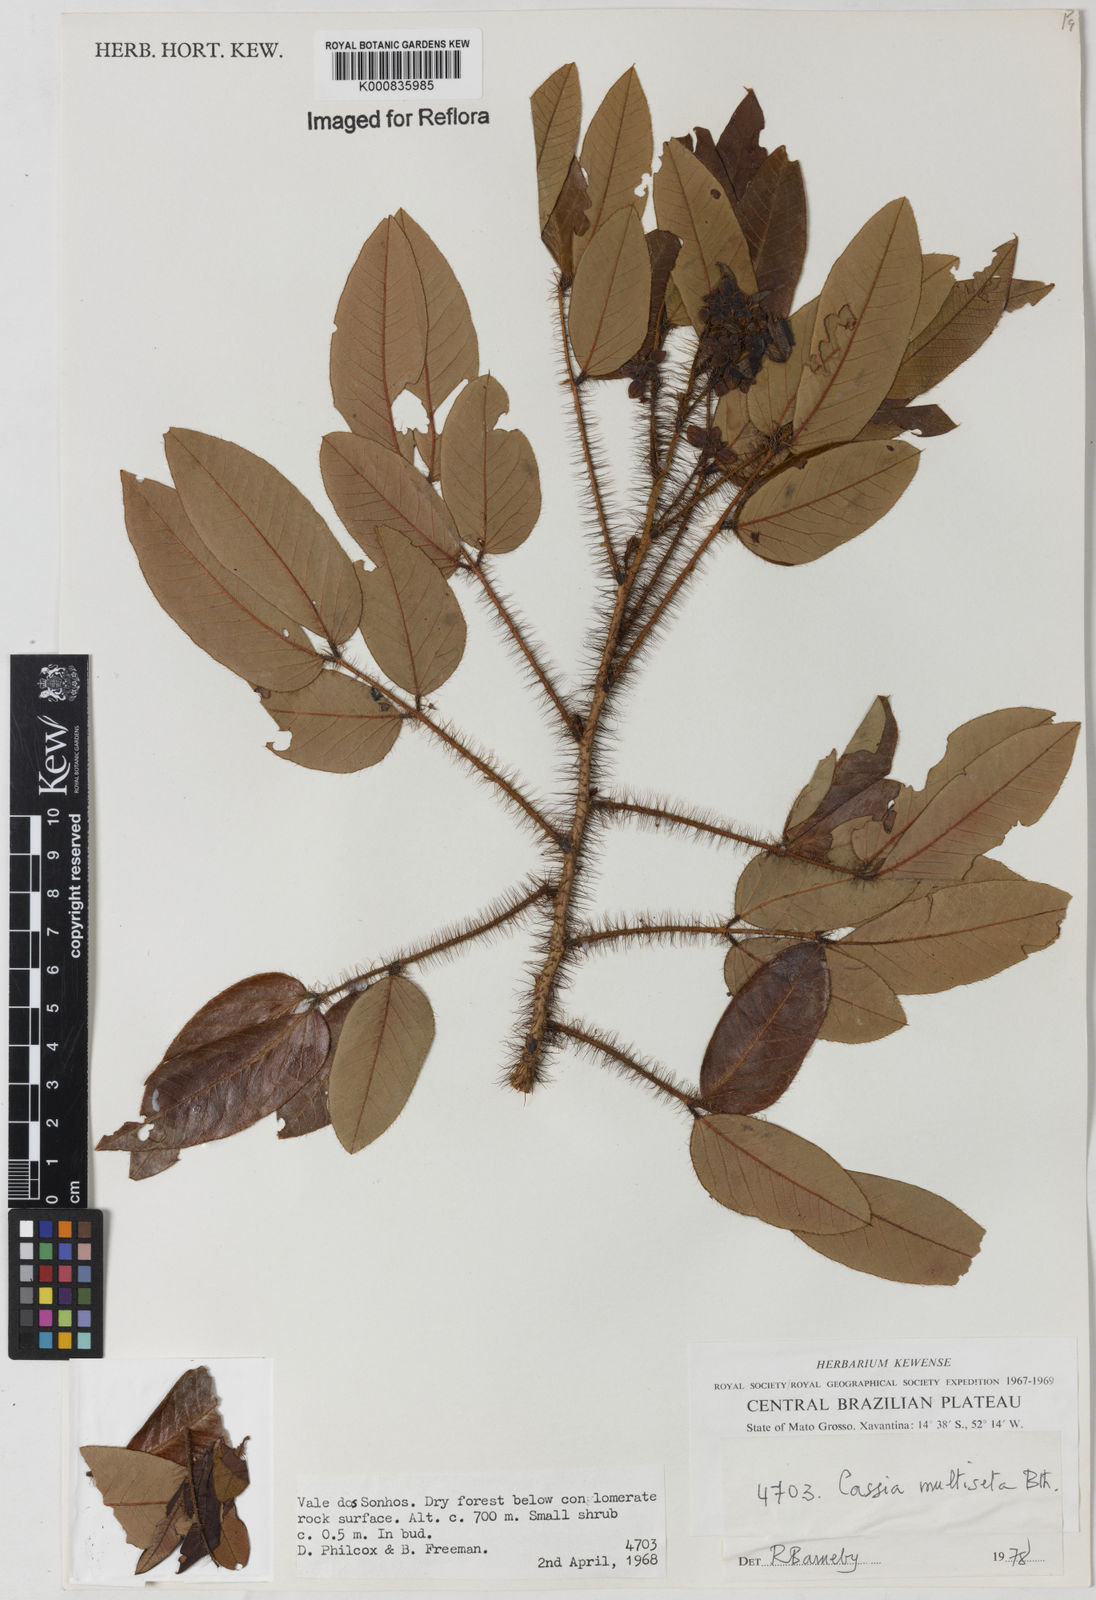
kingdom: Plantae
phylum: Tracheophyta
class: Magnoliopsida
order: Fabales
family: Fabaceae
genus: Chamaecrista
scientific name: Chamaecrista multiseta
